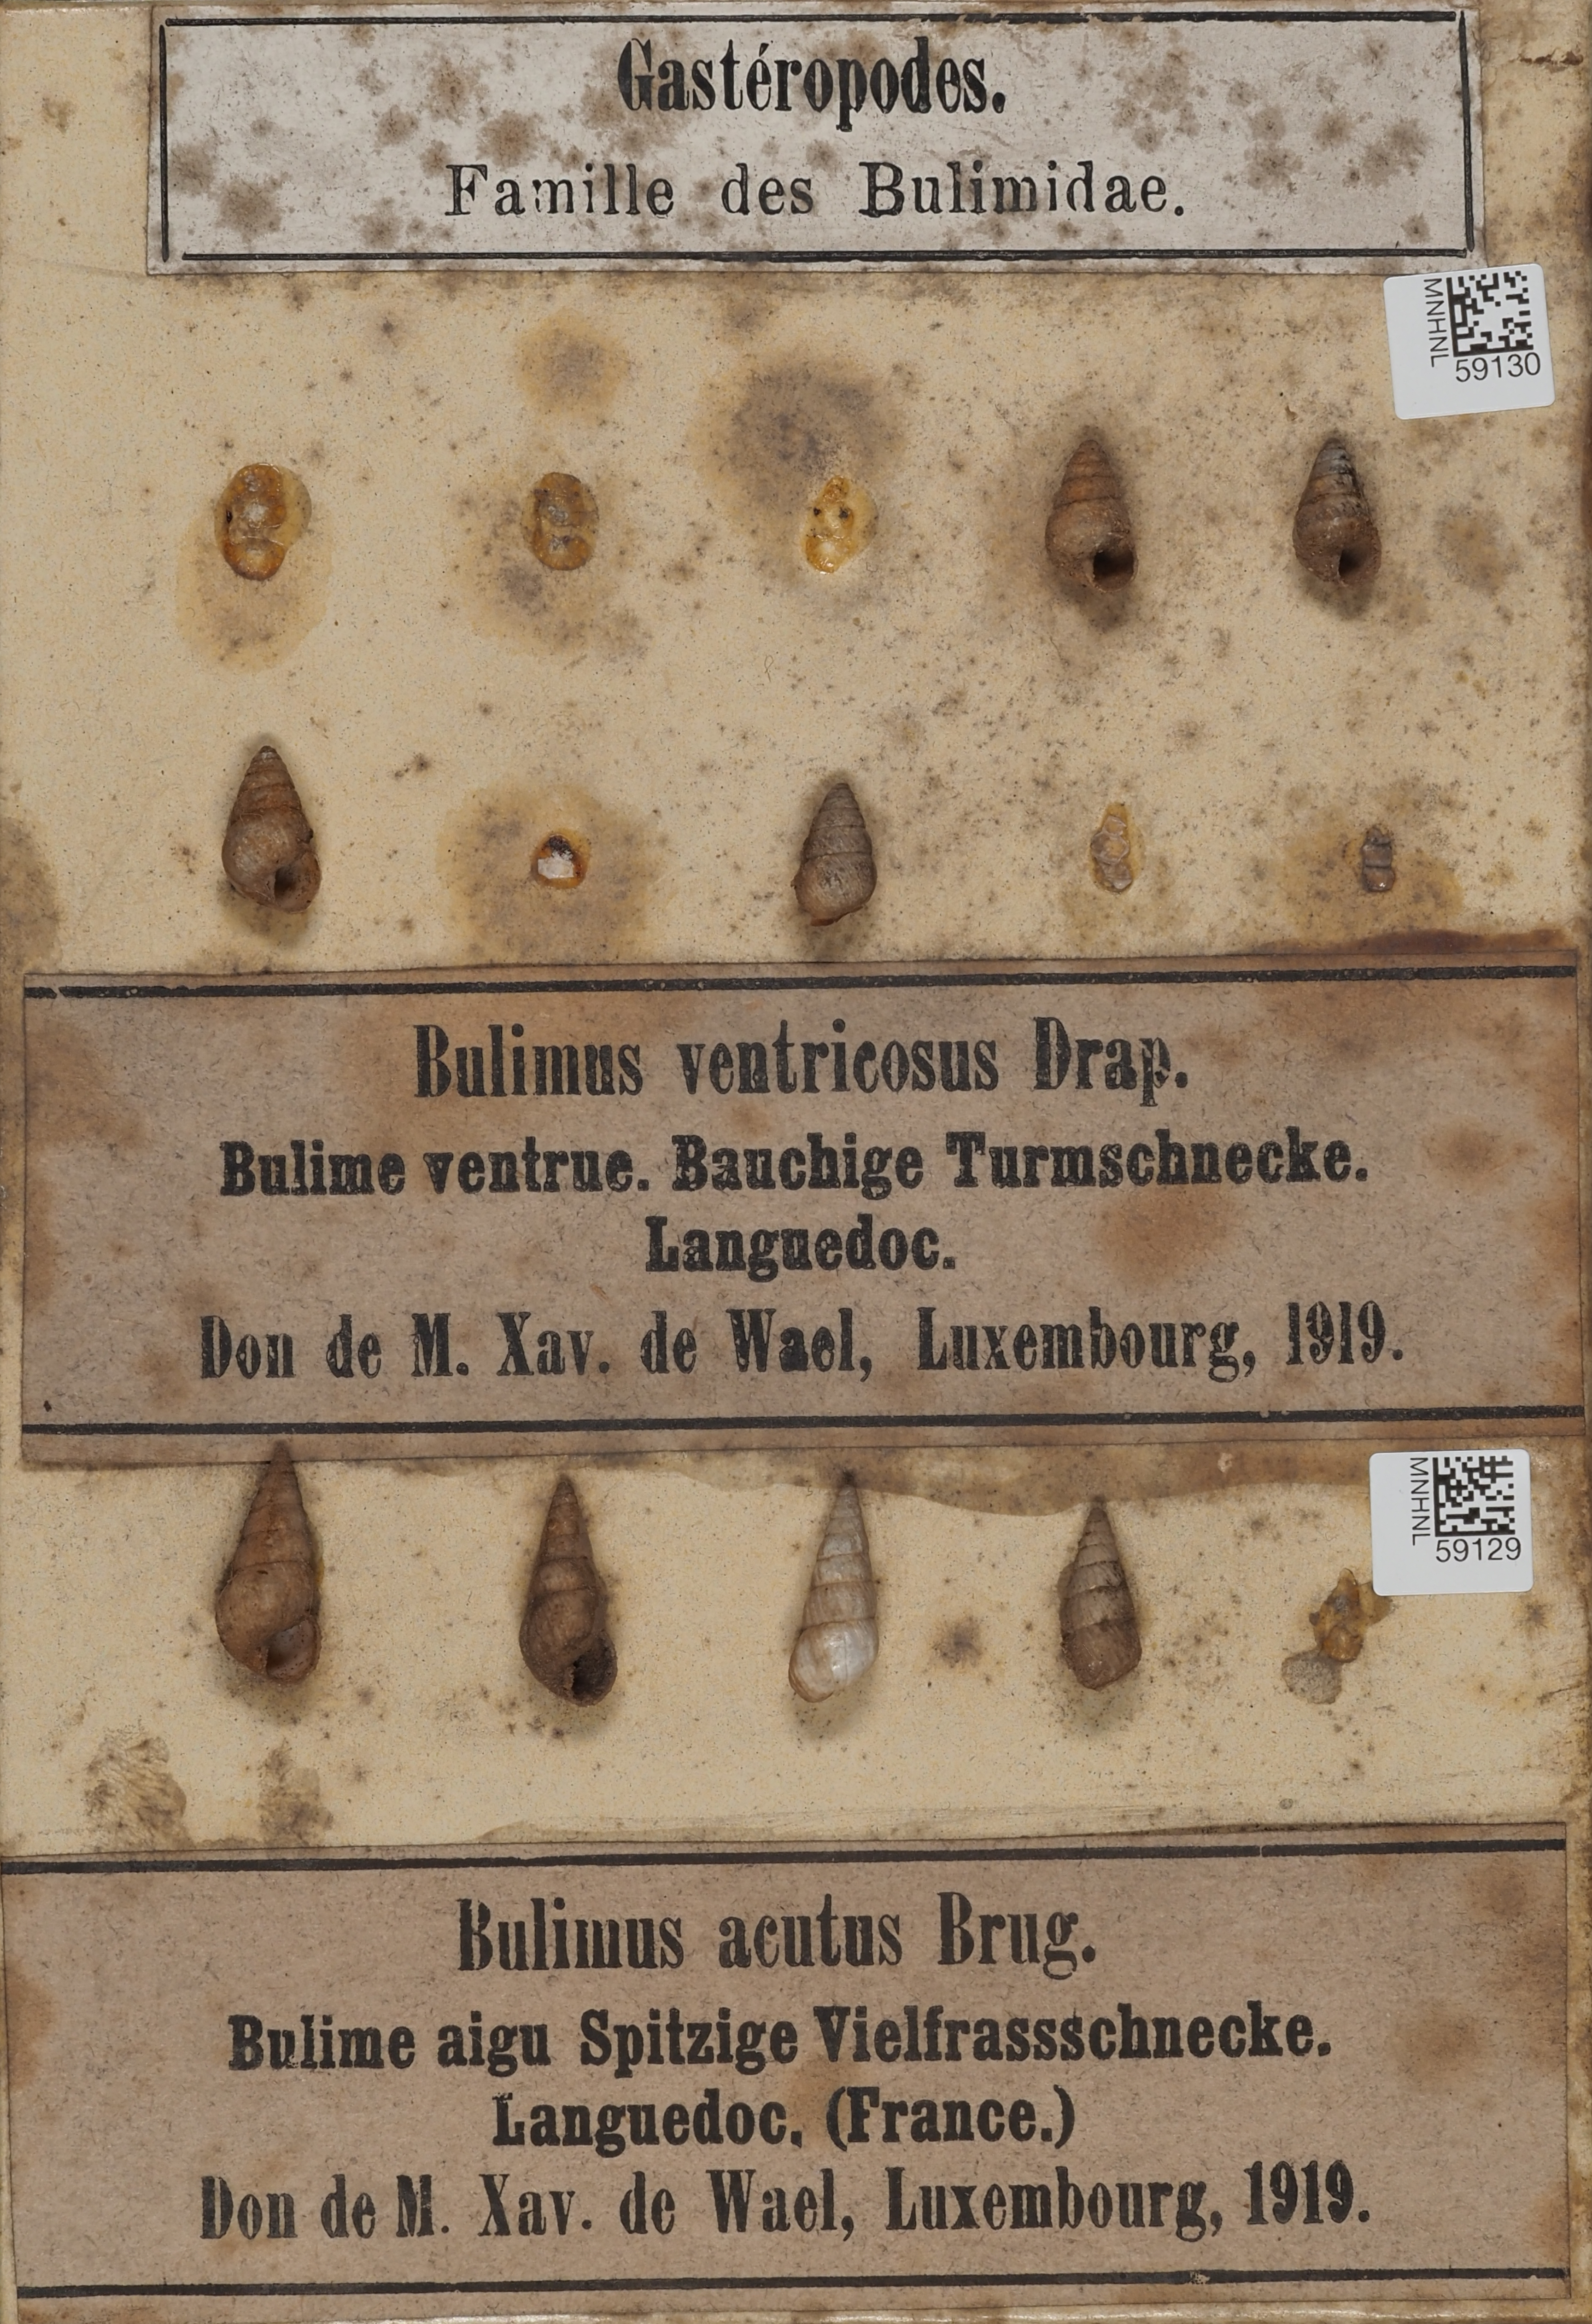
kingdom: Animalia
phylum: Mollusca
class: Gastropoda
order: Stylommatophora
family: Geomitridae
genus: Cochlicella
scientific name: Cochlicella barbara
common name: Potbellied helicellid
